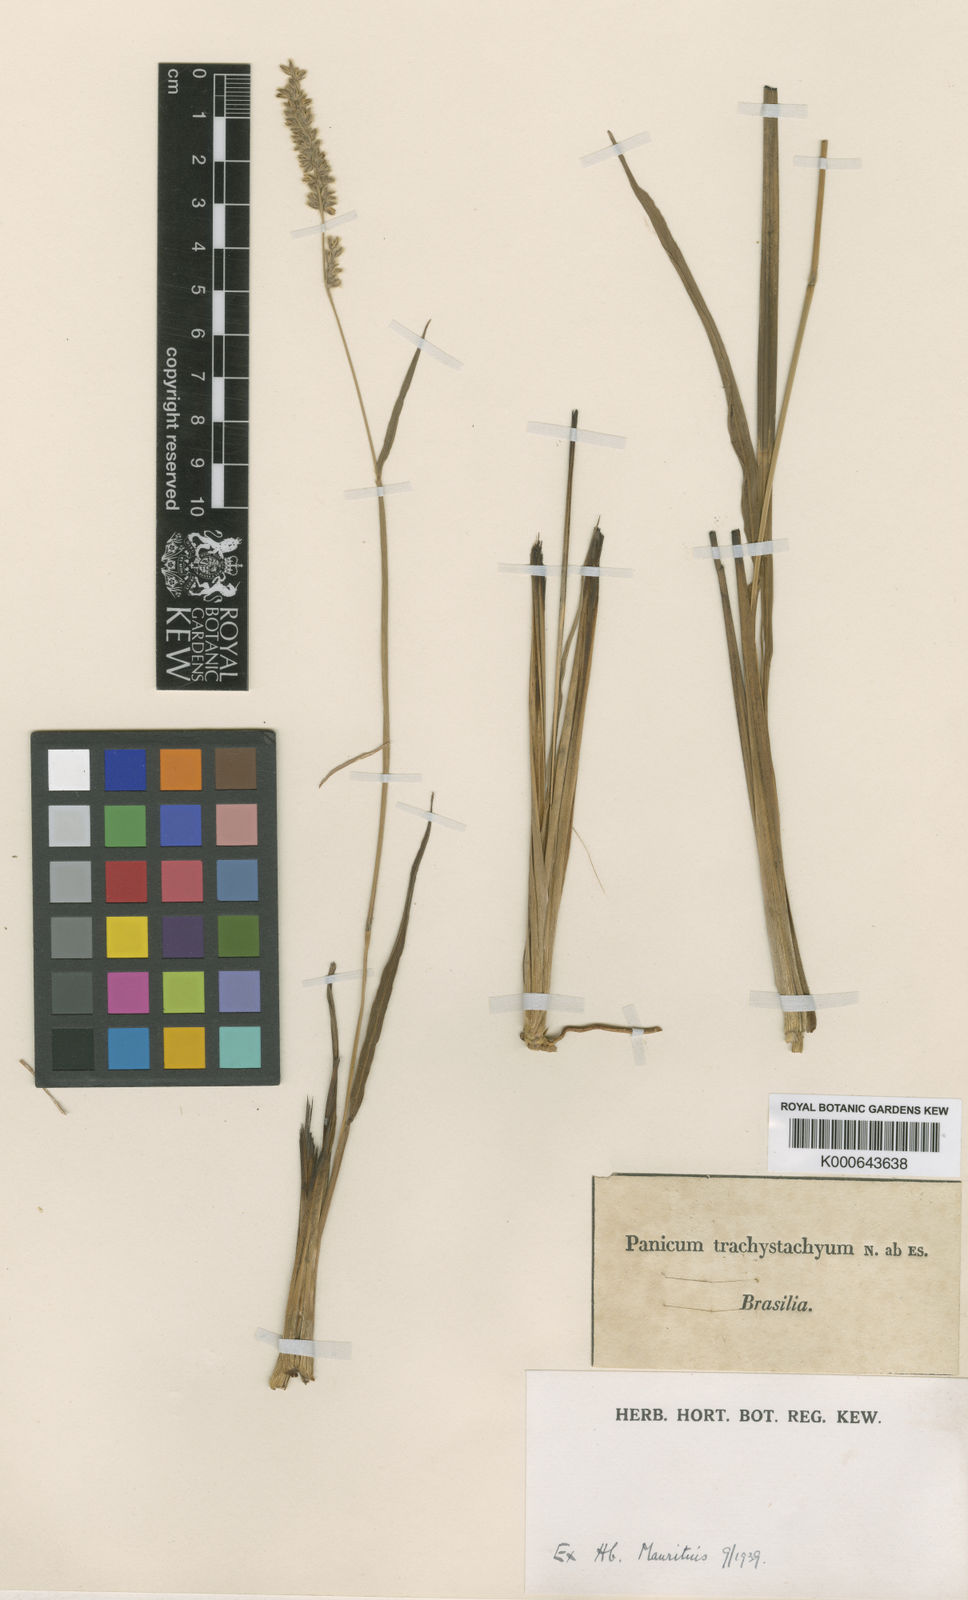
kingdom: Plantae
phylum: Tracheophyta
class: Liliopsida
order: Poales
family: Poaceae
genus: Anthaenantiopsis
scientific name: Anthaenantiopsis trachystachya
